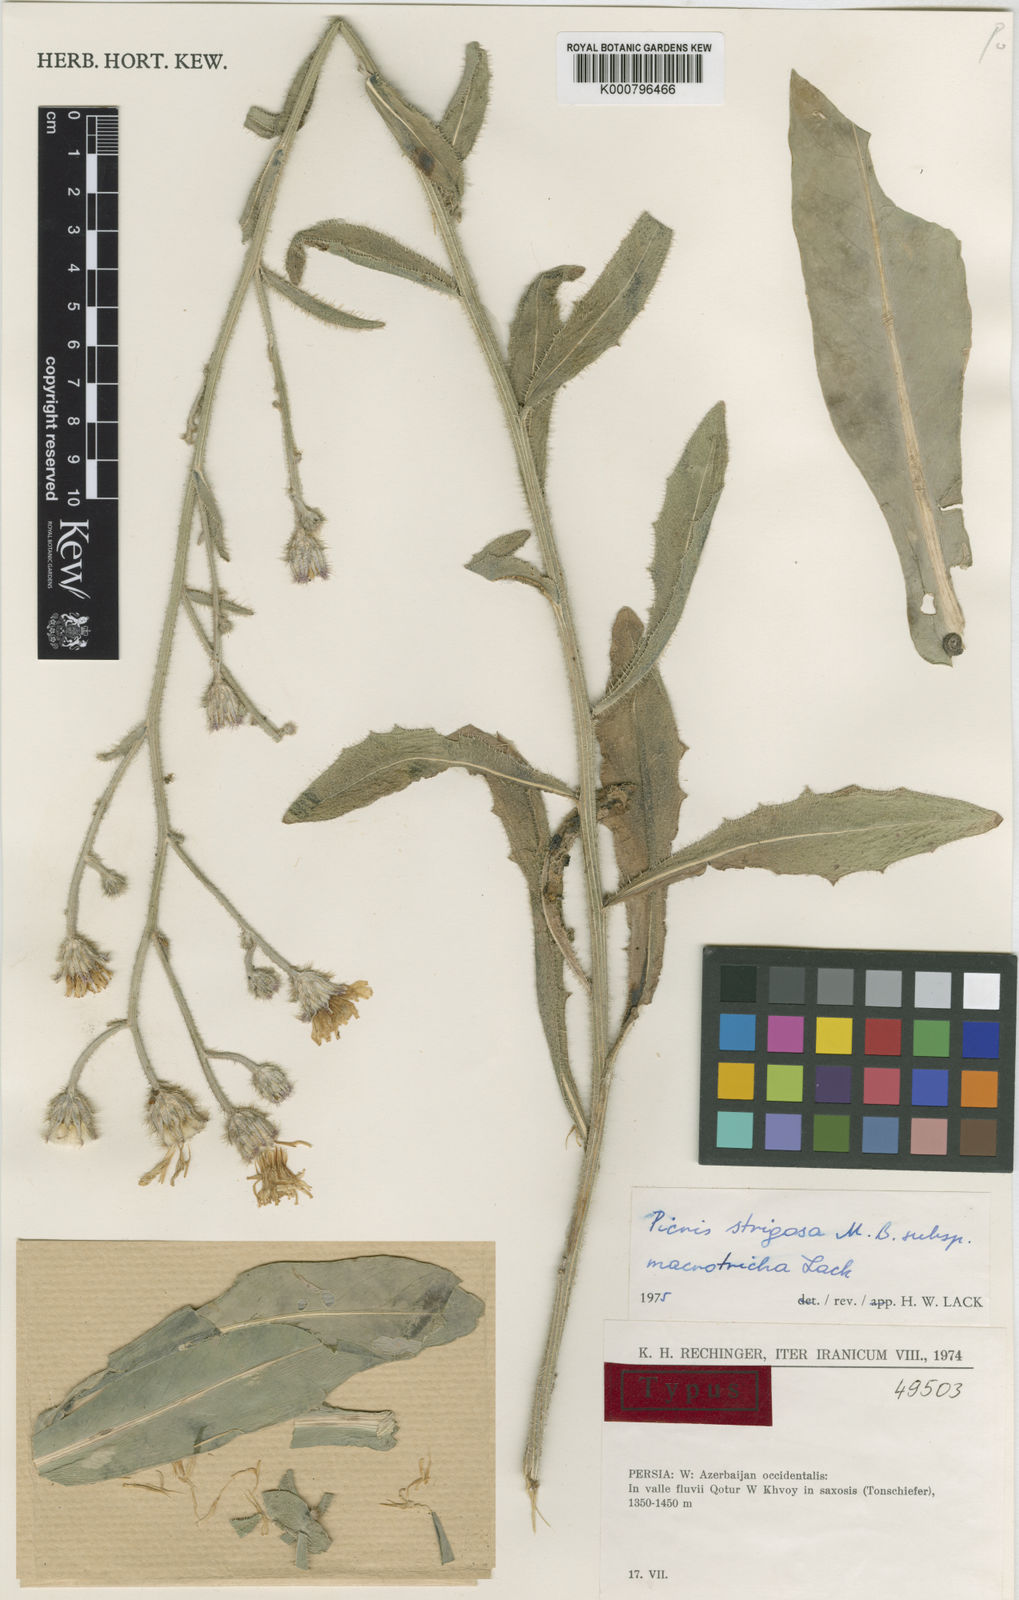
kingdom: Plantae
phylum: Tracheophyta
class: Magnoliopsida
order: Asterales
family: Asteraceae
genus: Picris
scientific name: Picris strigosa
